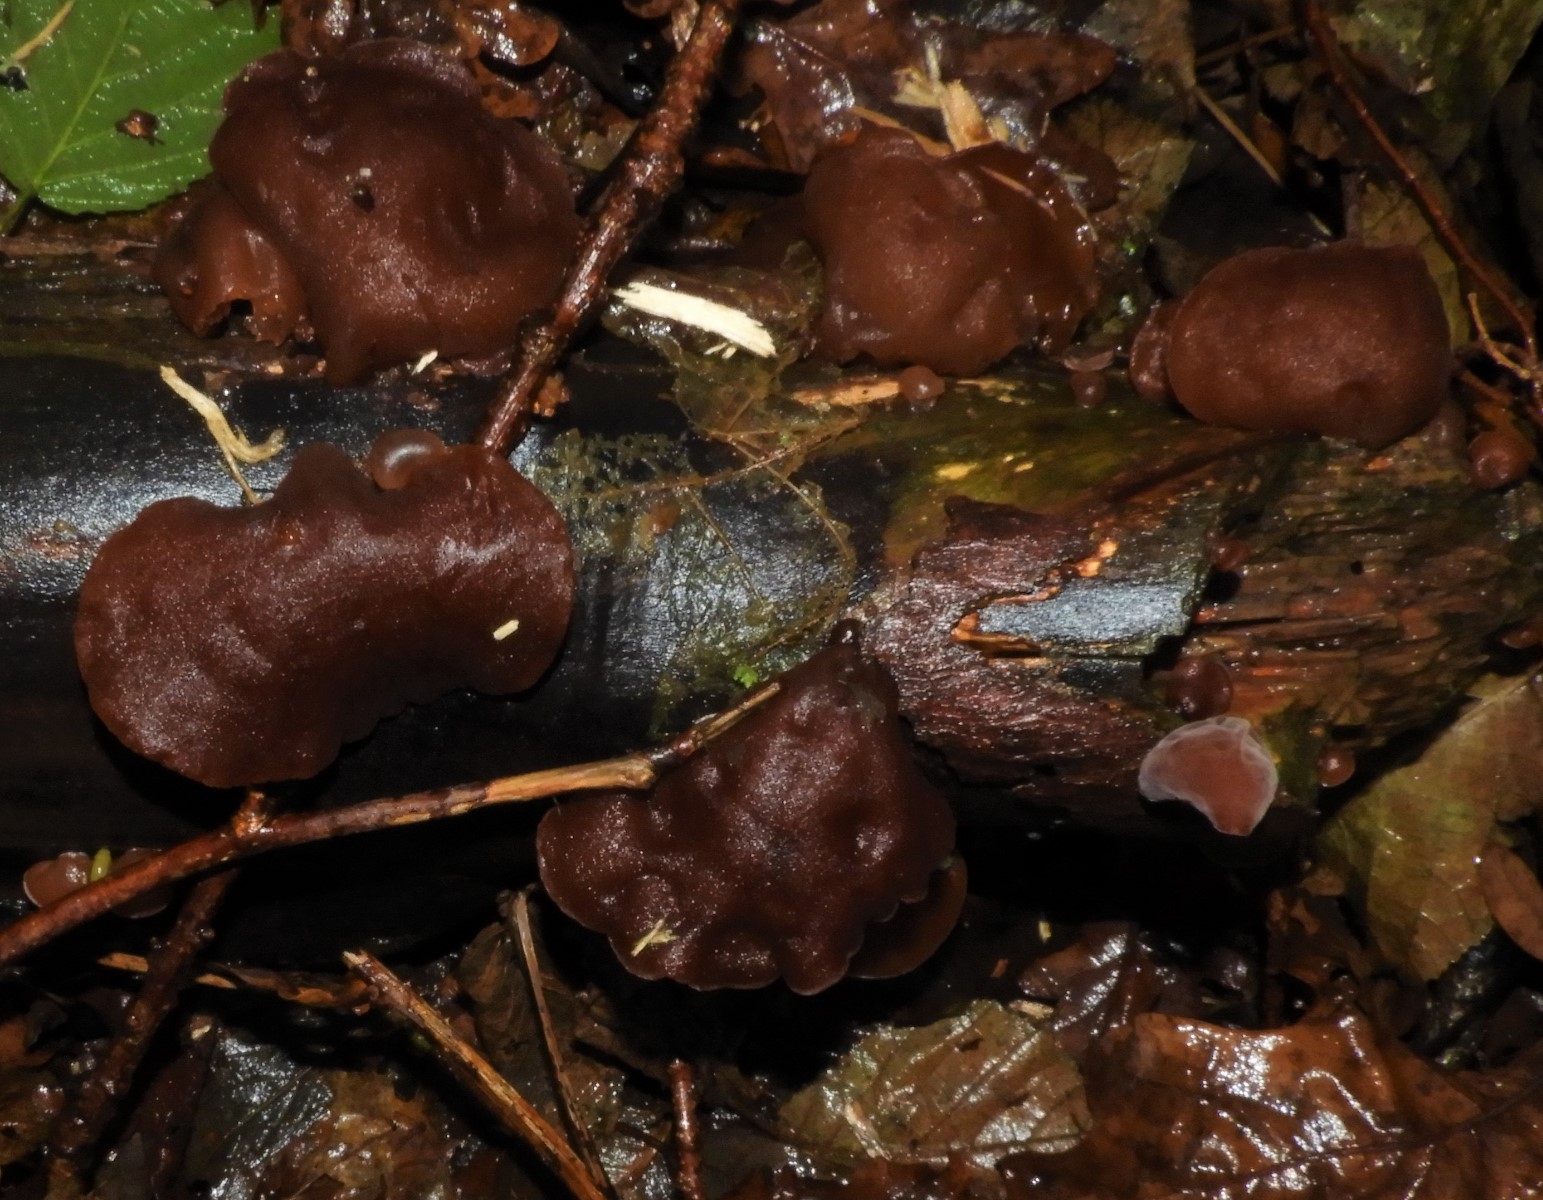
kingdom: Fungi
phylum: Basidiomycota
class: Agaricomycetes
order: Auriculariales
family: Auriculariaceae
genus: Auricularia
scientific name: Auricularia auricula-judae
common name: almindelig judasøre
